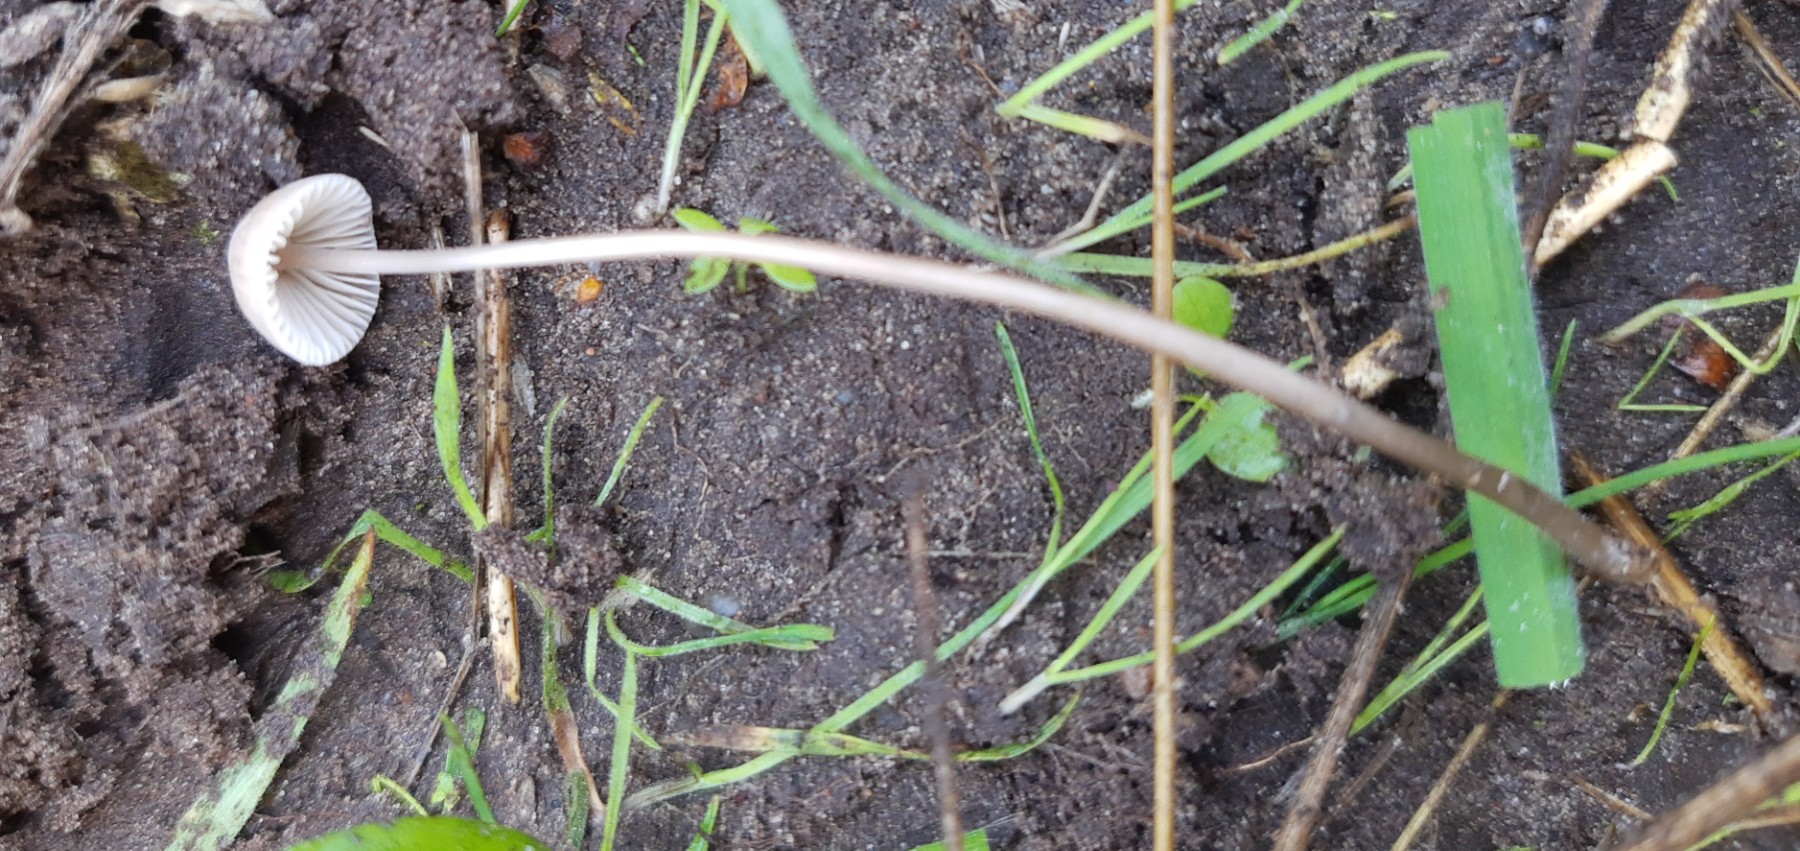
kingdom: Fungi
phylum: Basidiomycota
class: Agaricomycetes
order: Agaricales
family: Mycenaceae
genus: Mycena
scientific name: Mycena leptocephala
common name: klor-huesvamp
